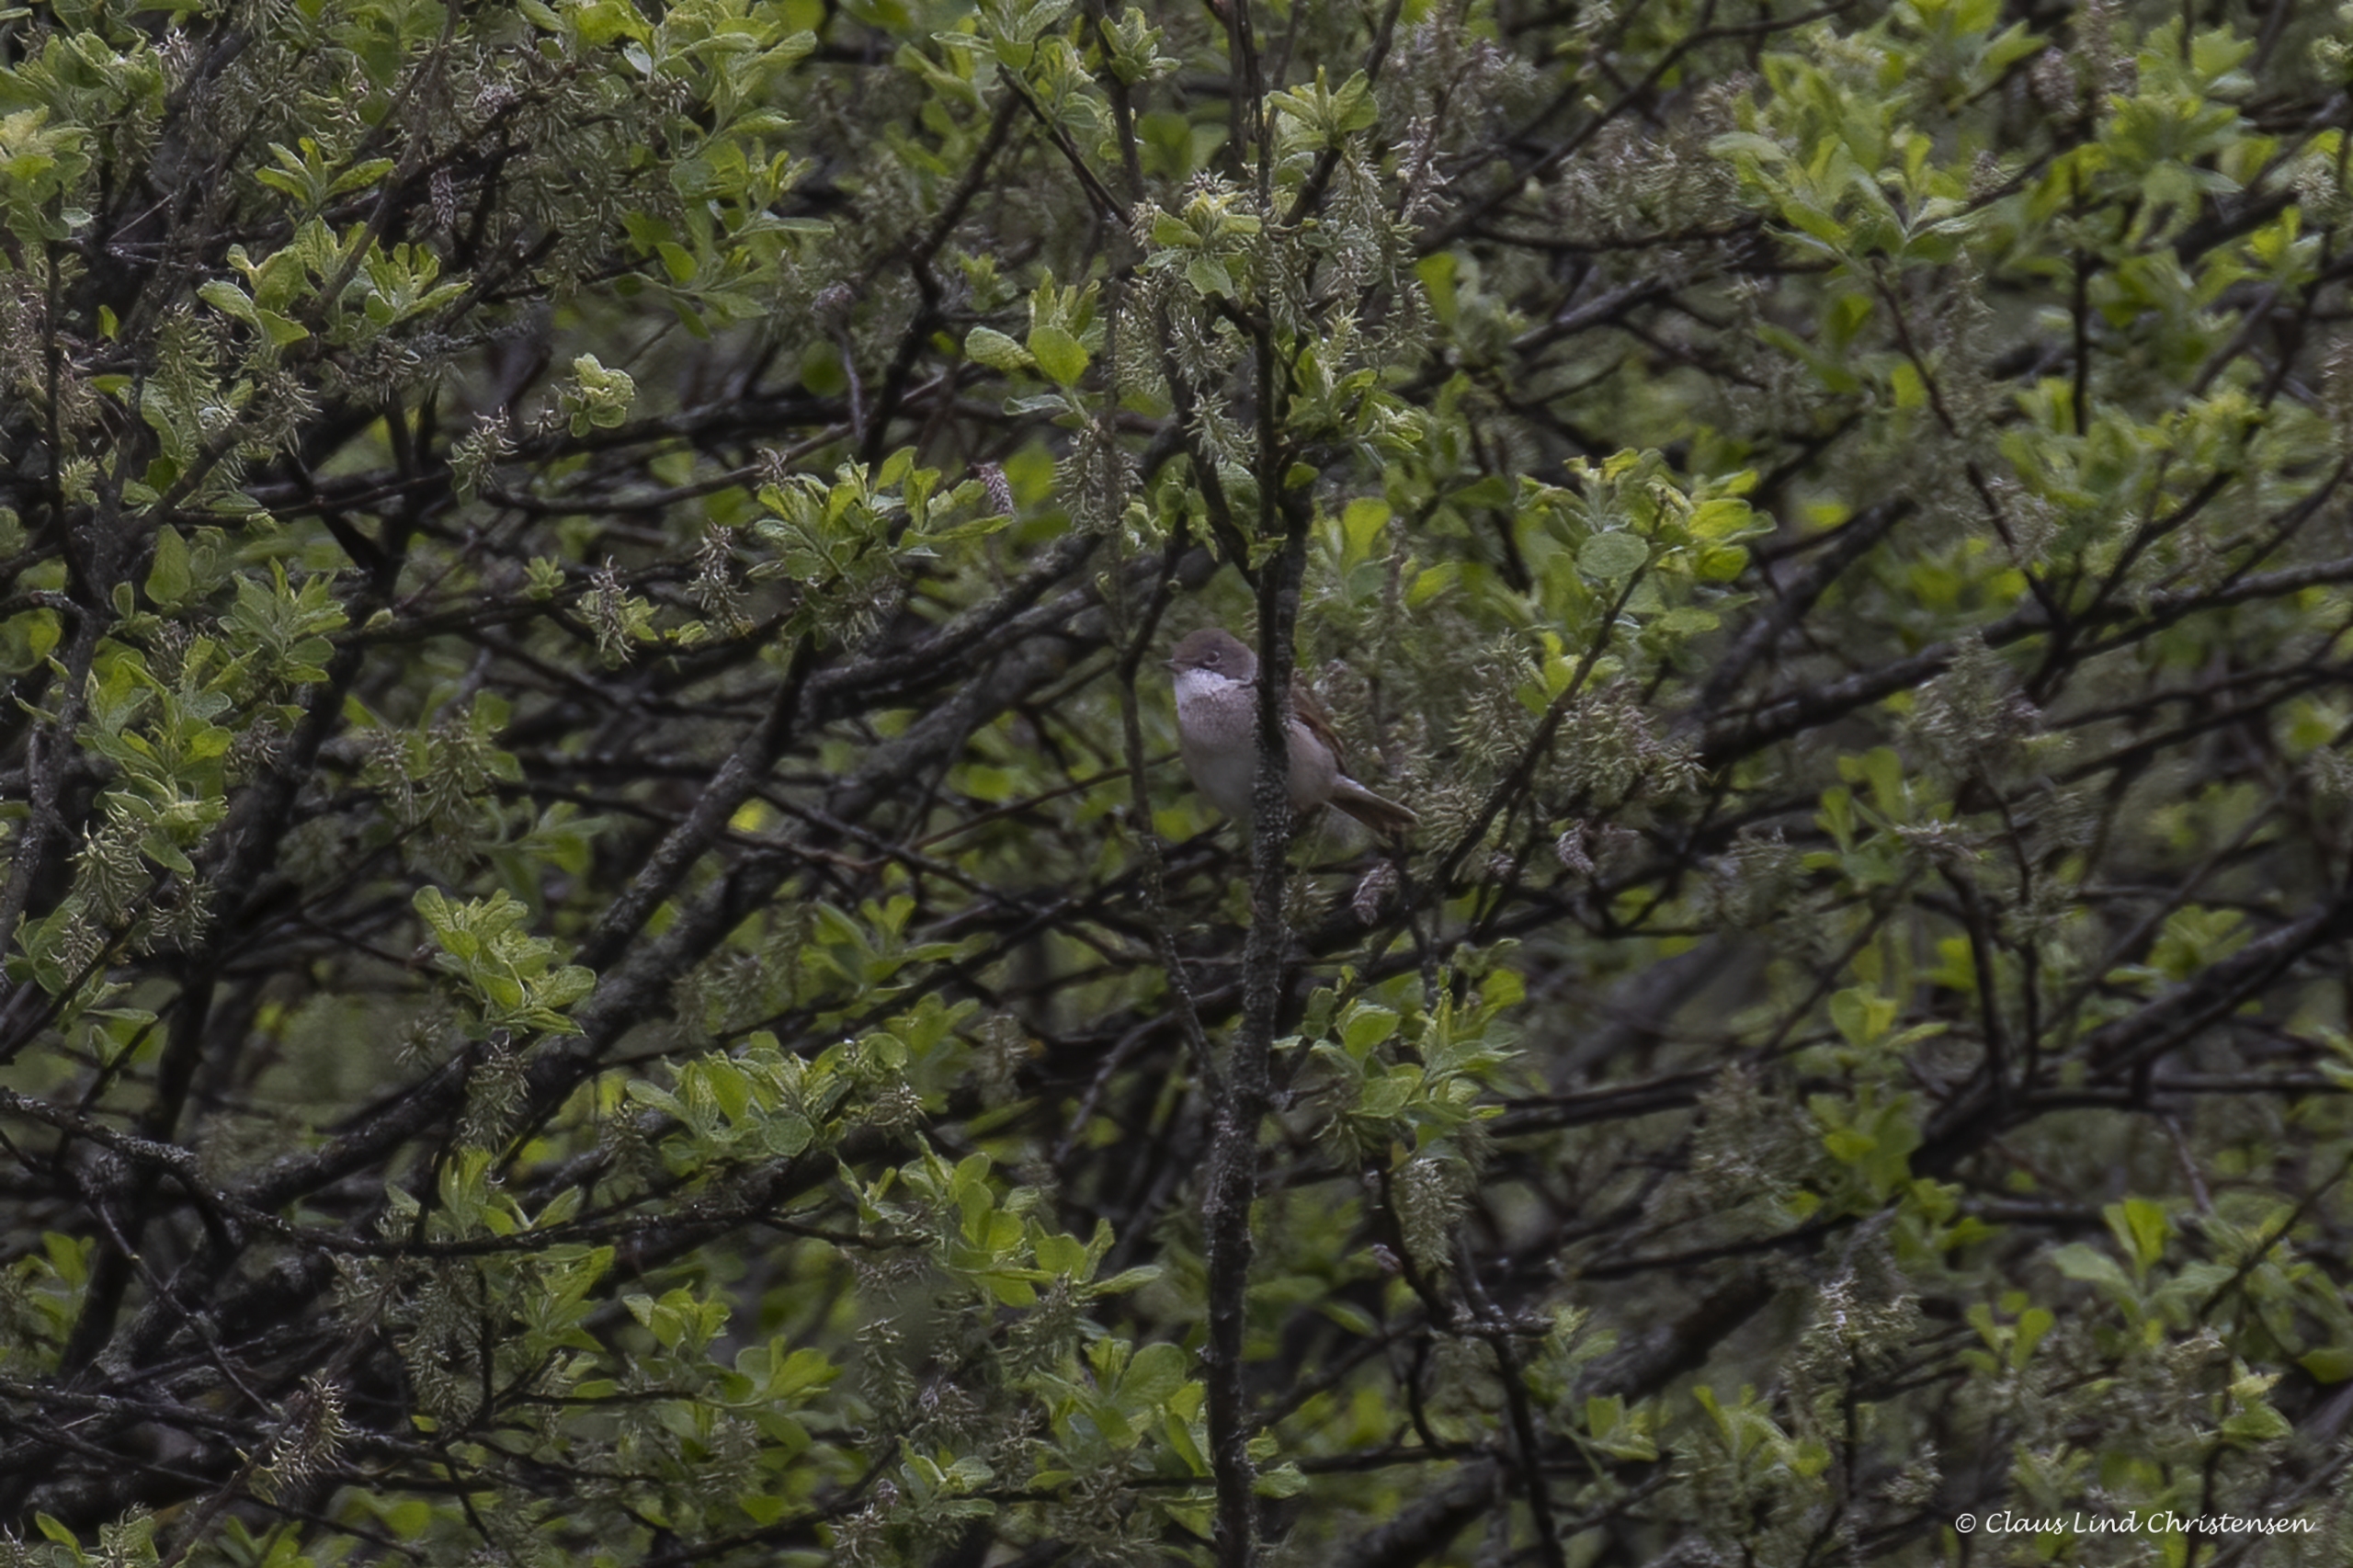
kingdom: Animalia
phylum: Chordata
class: Aves
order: Passeriformes
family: Sylviidae
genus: Sylvia
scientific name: Sylvia communis
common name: Tornsanger
